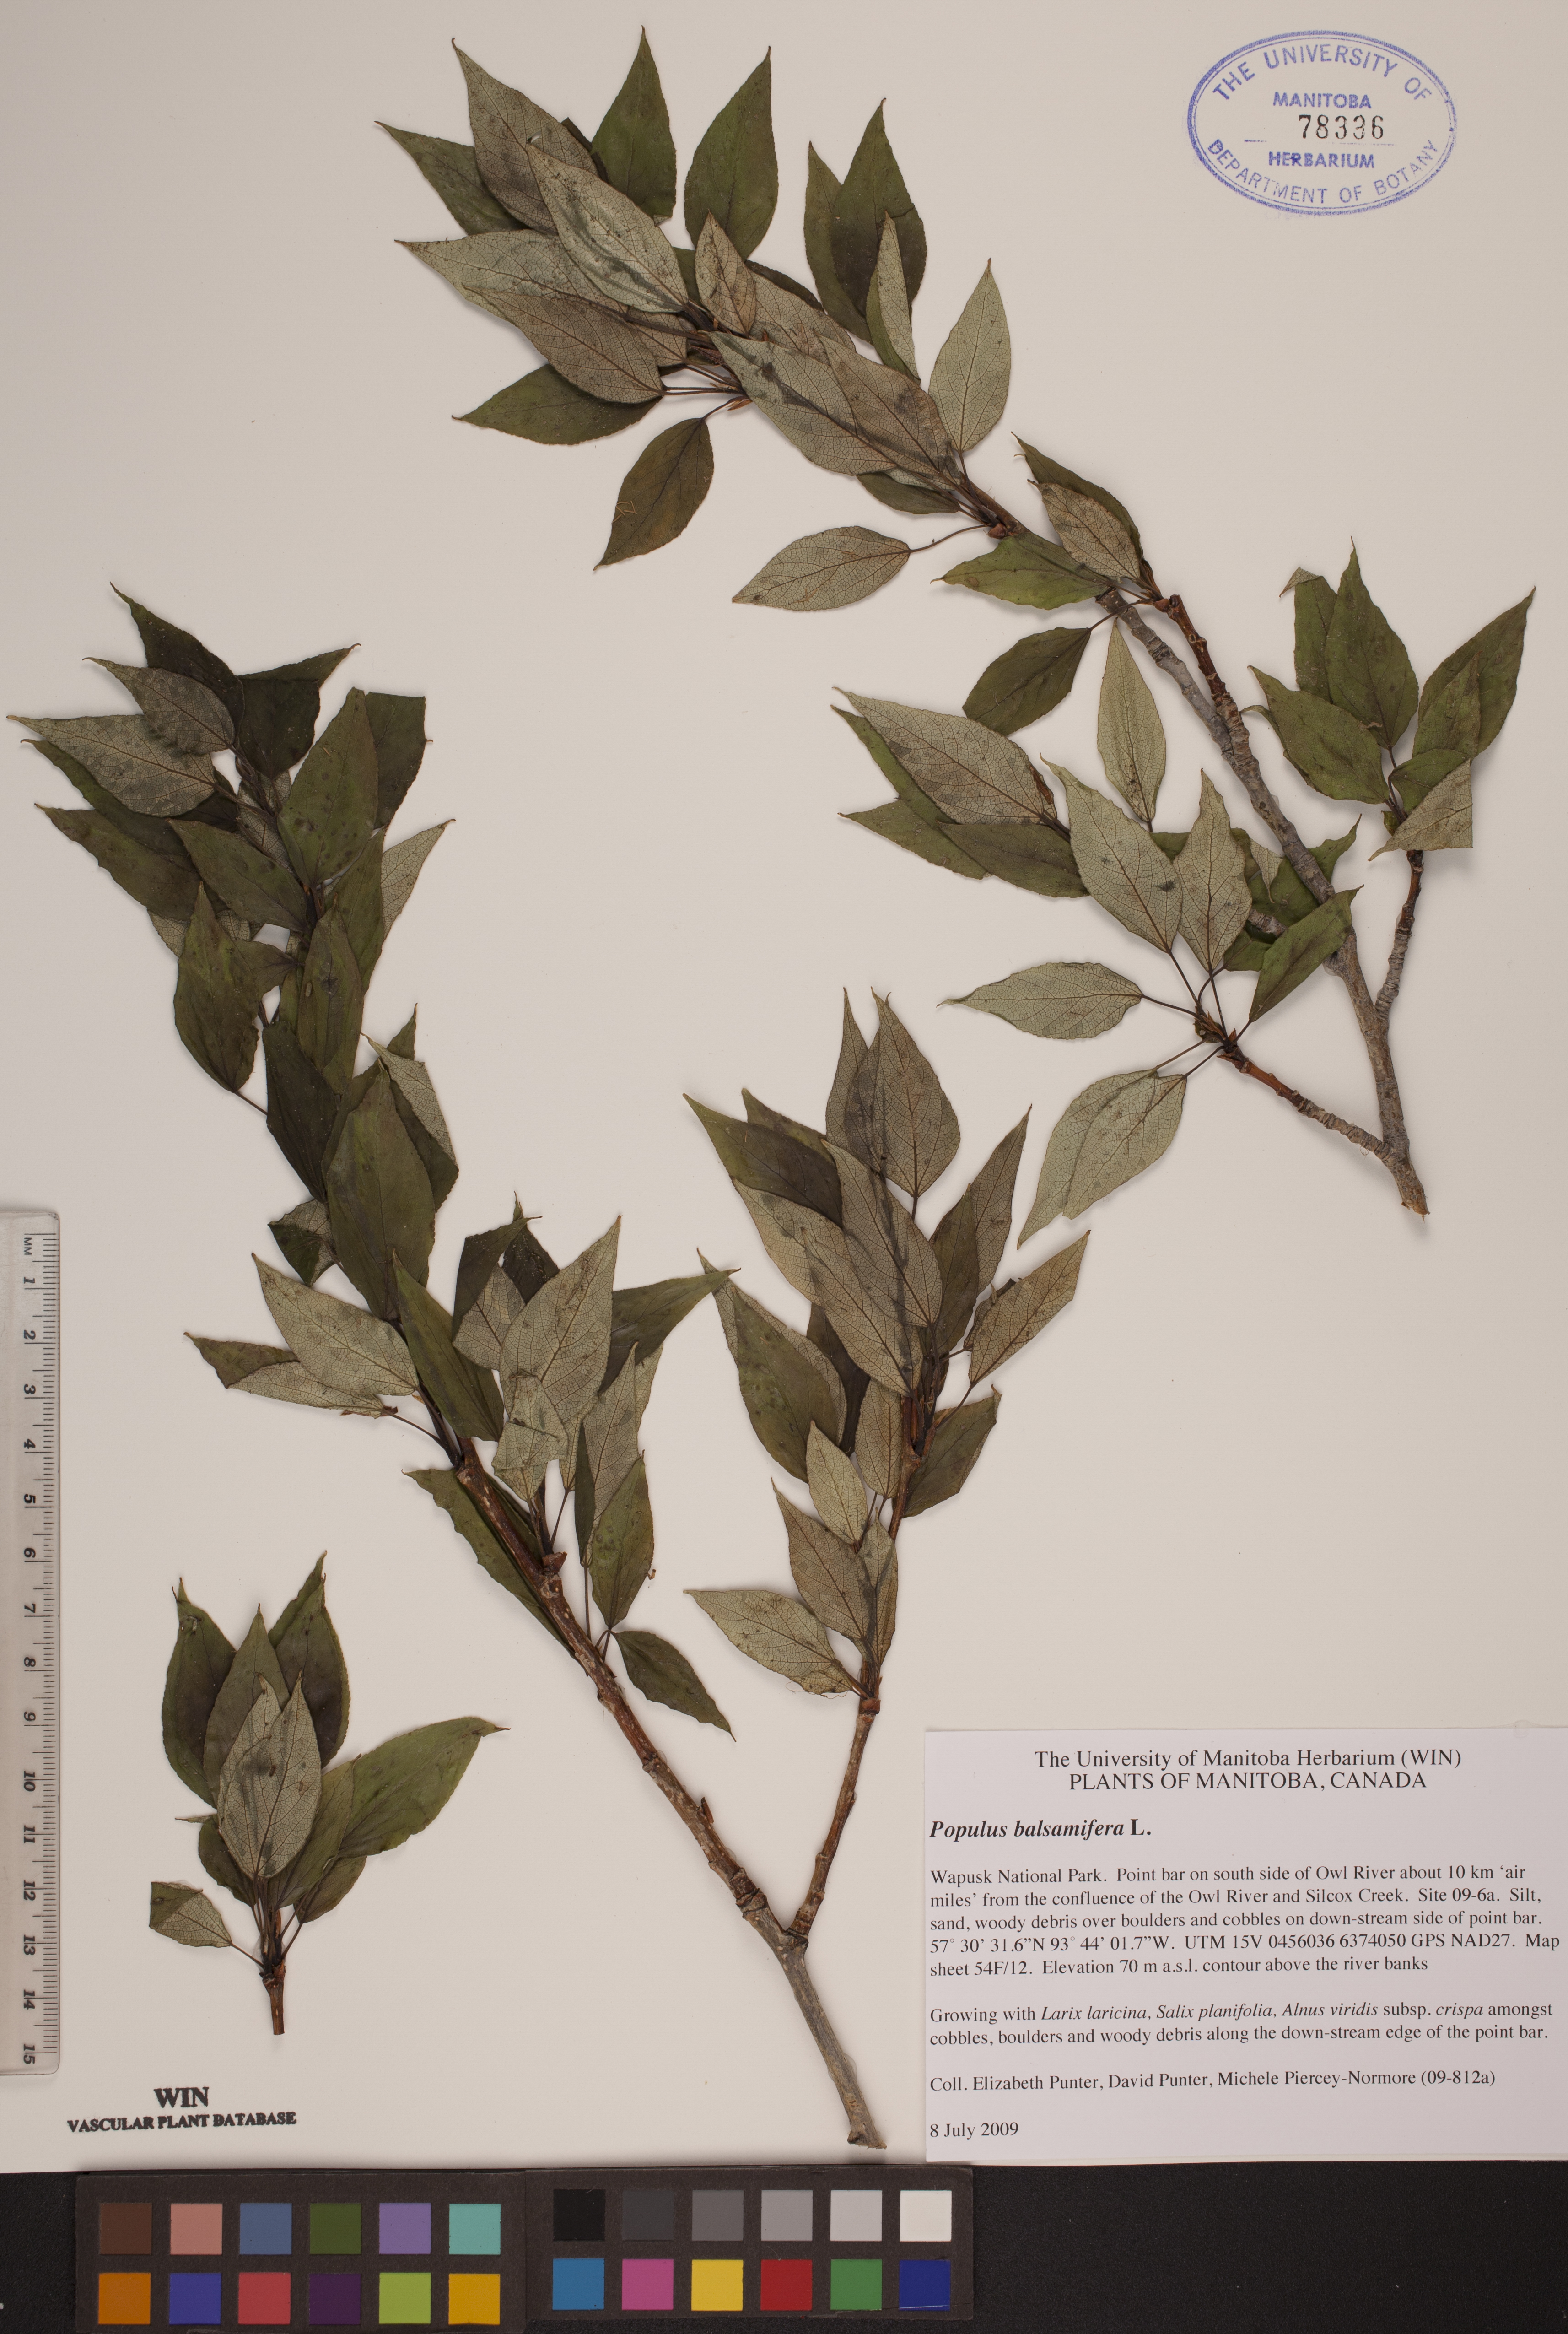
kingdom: Plantae
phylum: Tracheophyta
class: Magnoliopsida
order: Malpighiales
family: Salicaceae
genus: Populus
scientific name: Populus balsamifera
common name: Balsam poplar
